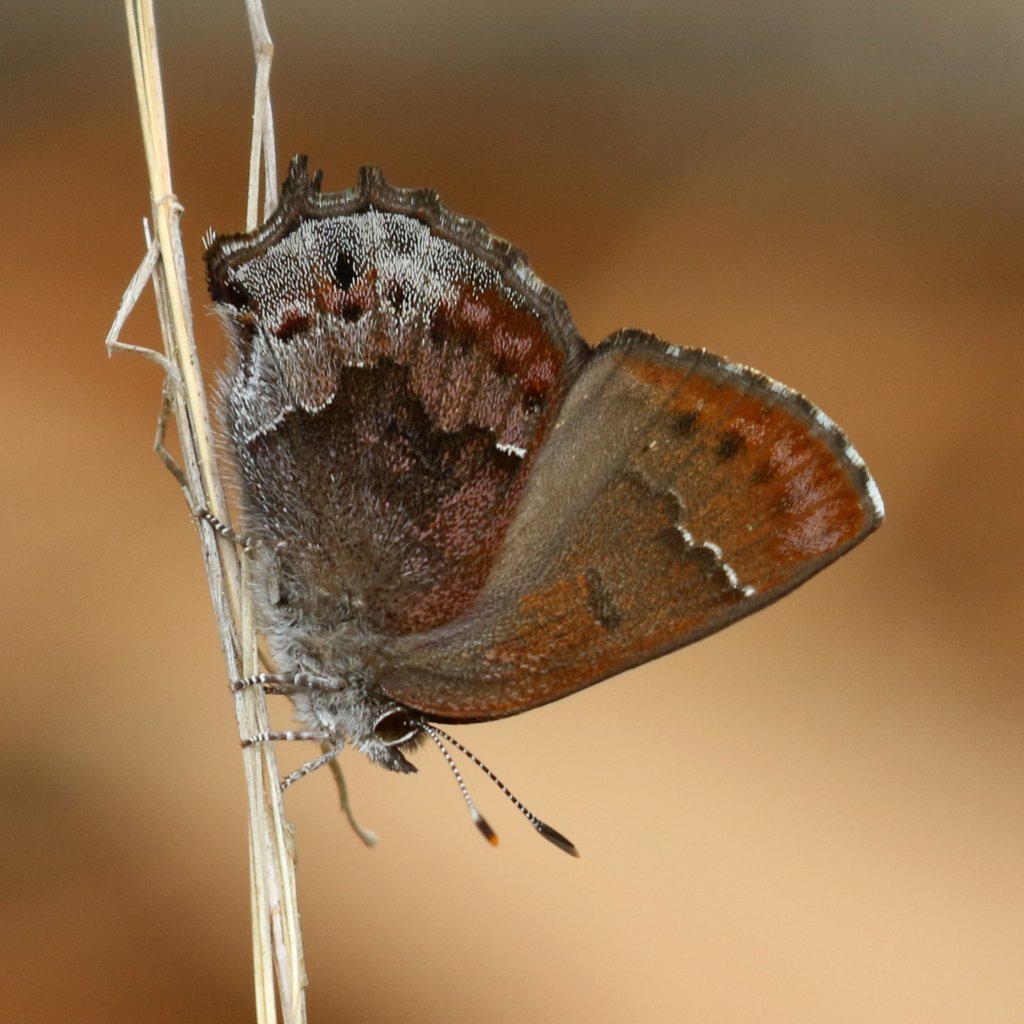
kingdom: Animalia
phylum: Arthropoda
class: Insecta
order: Lepidoptera
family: Lycaenidae
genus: Thecla
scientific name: Thecla irus
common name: Frosted Elfin
